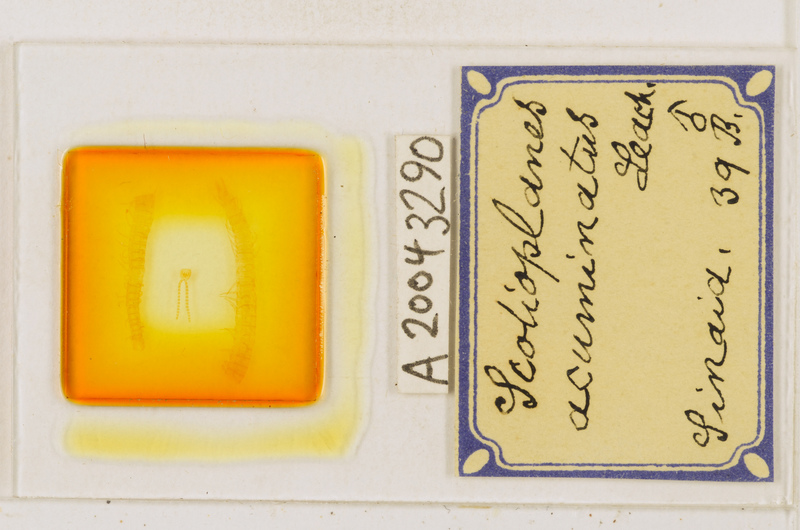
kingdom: Animalia
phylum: Arthropoda
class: Chilopoda
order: Geophilomorpha
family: Linotaeniidae
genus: Strigamia
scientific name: Strigamia acuminata
